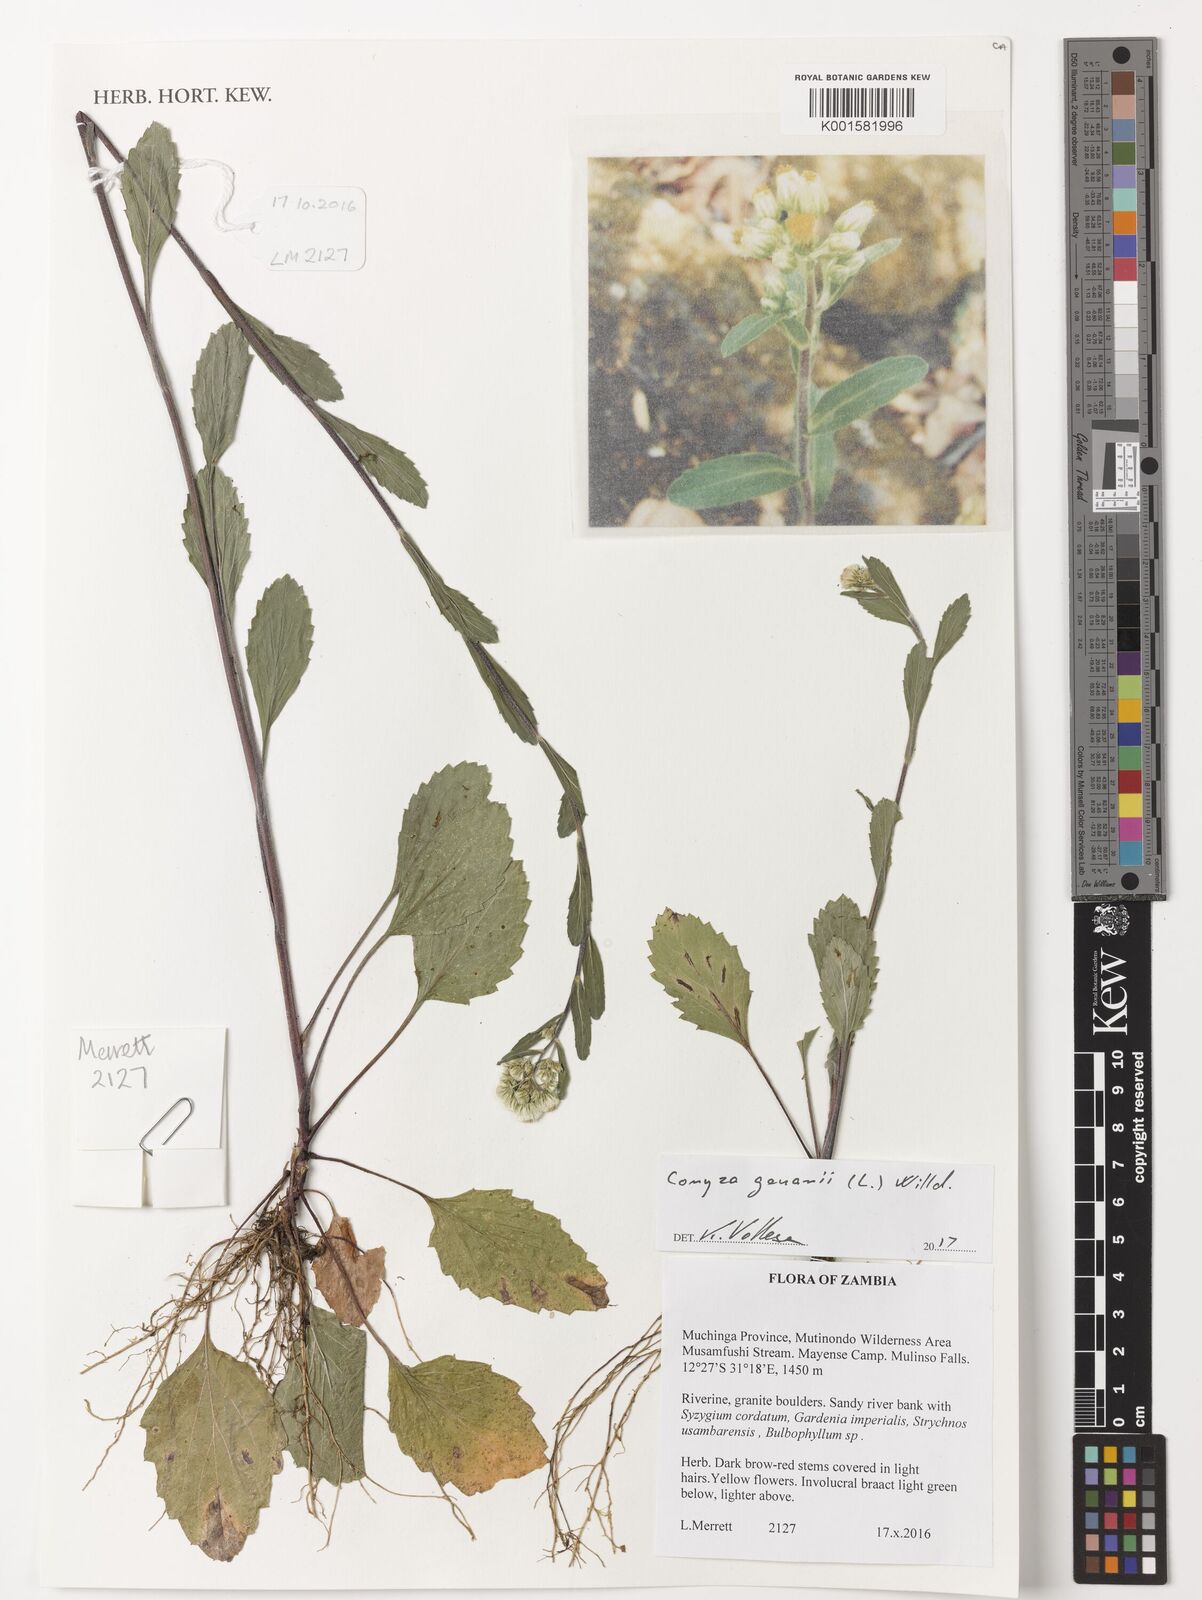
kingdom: Plantae
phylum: Tracheophyta
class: Magnoliopsida
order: Asterales
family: Asteraceae
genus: Eschenbachia
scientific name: Eschenbachia gouanii
